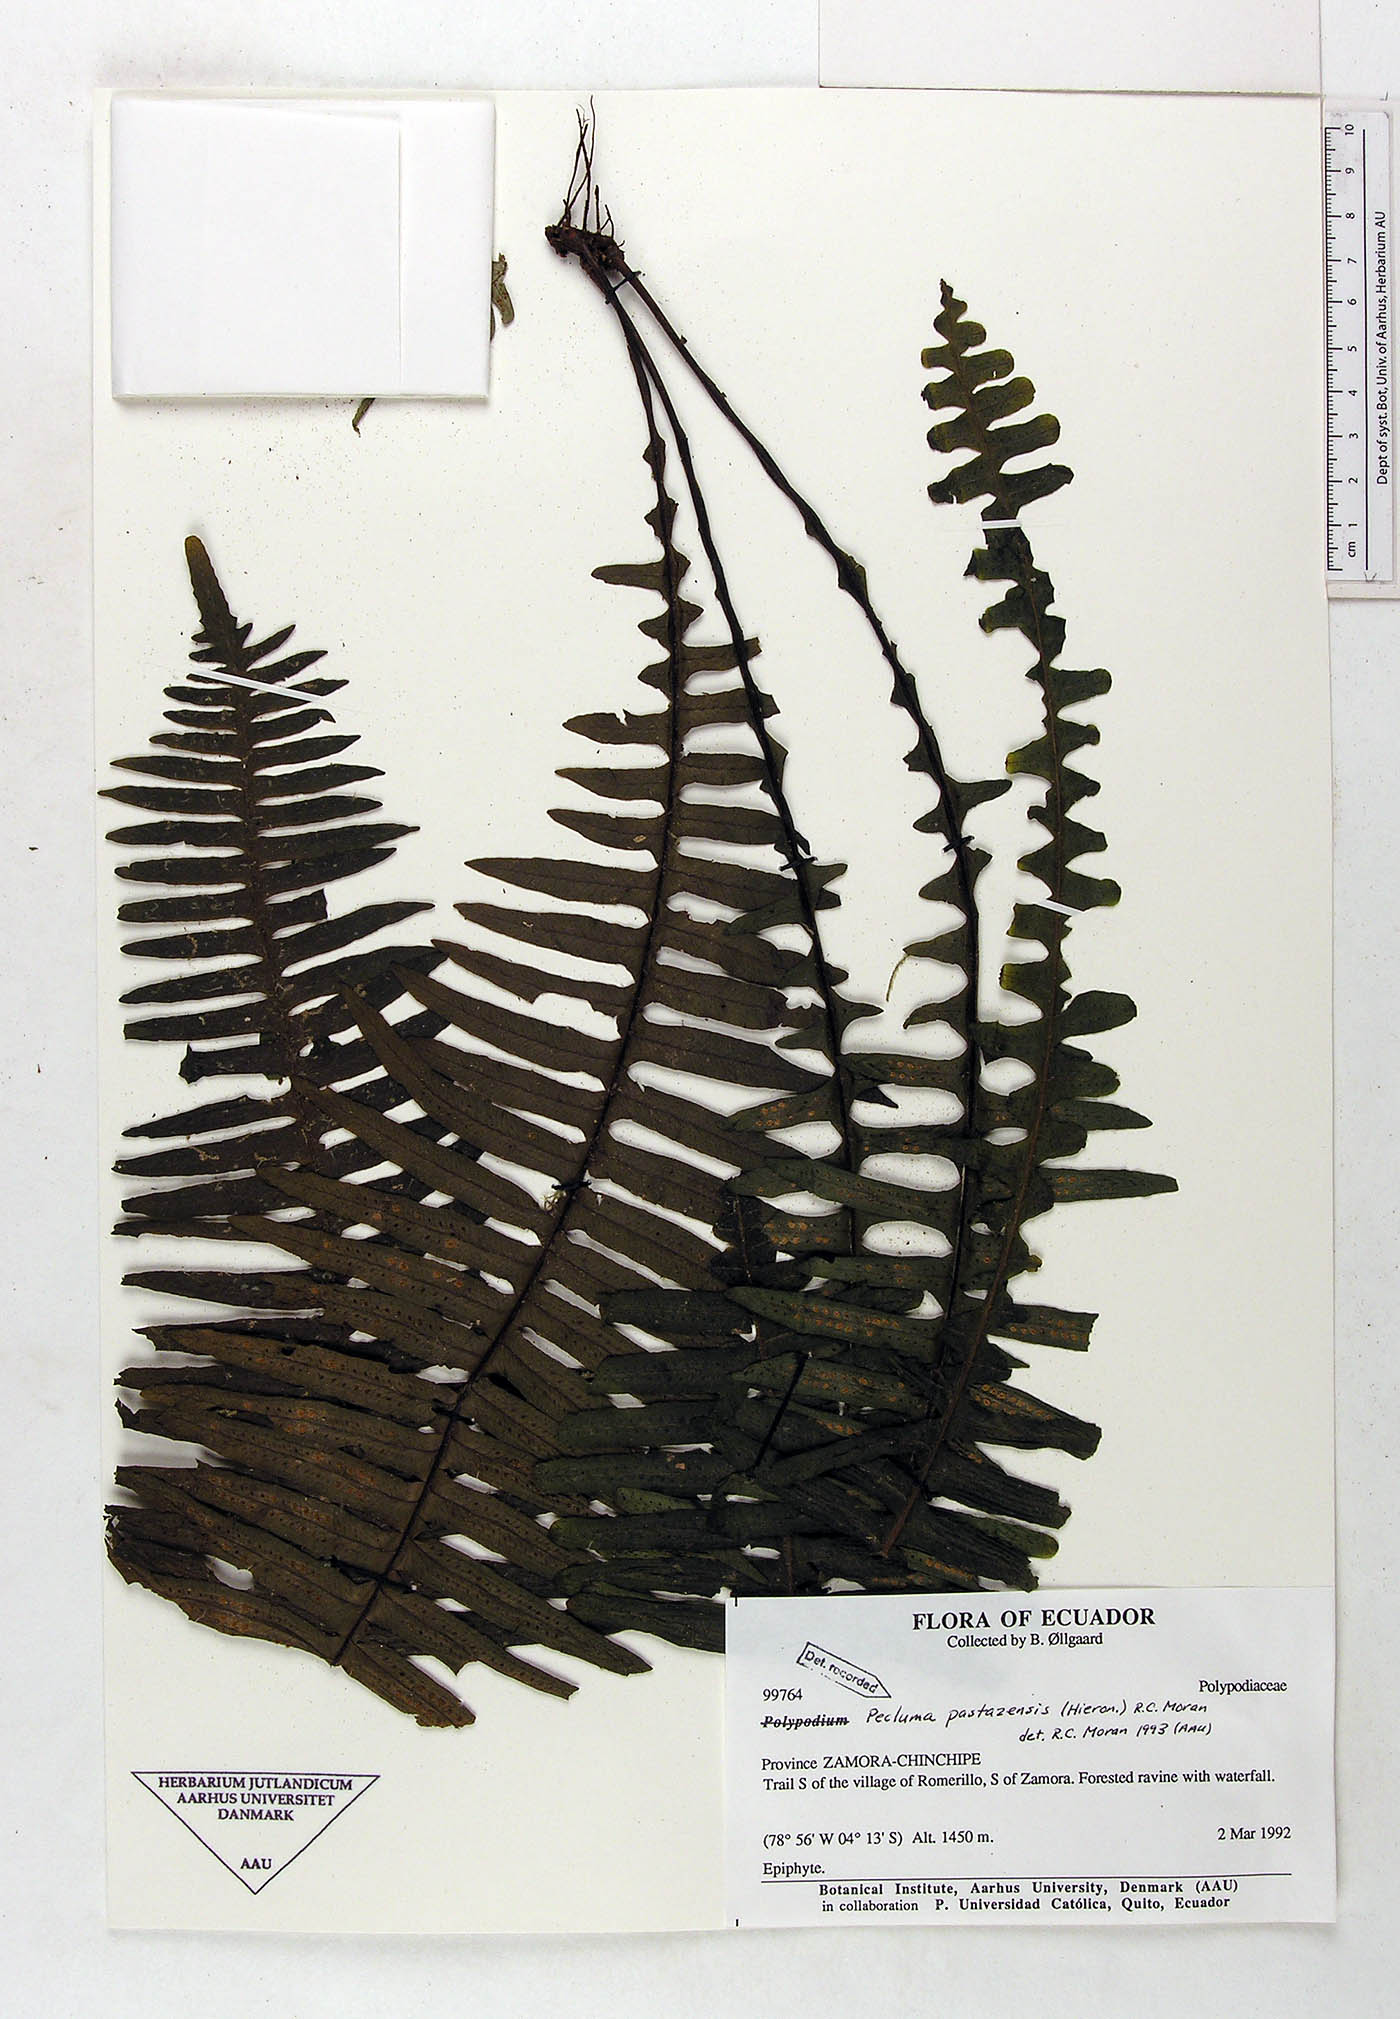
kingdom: Plantae
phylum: Tracheophyta
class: Polypodiopsida
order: Polypodiales
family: Polypodiaceae
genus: Pecluma
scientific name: Pecluma pastazensis
